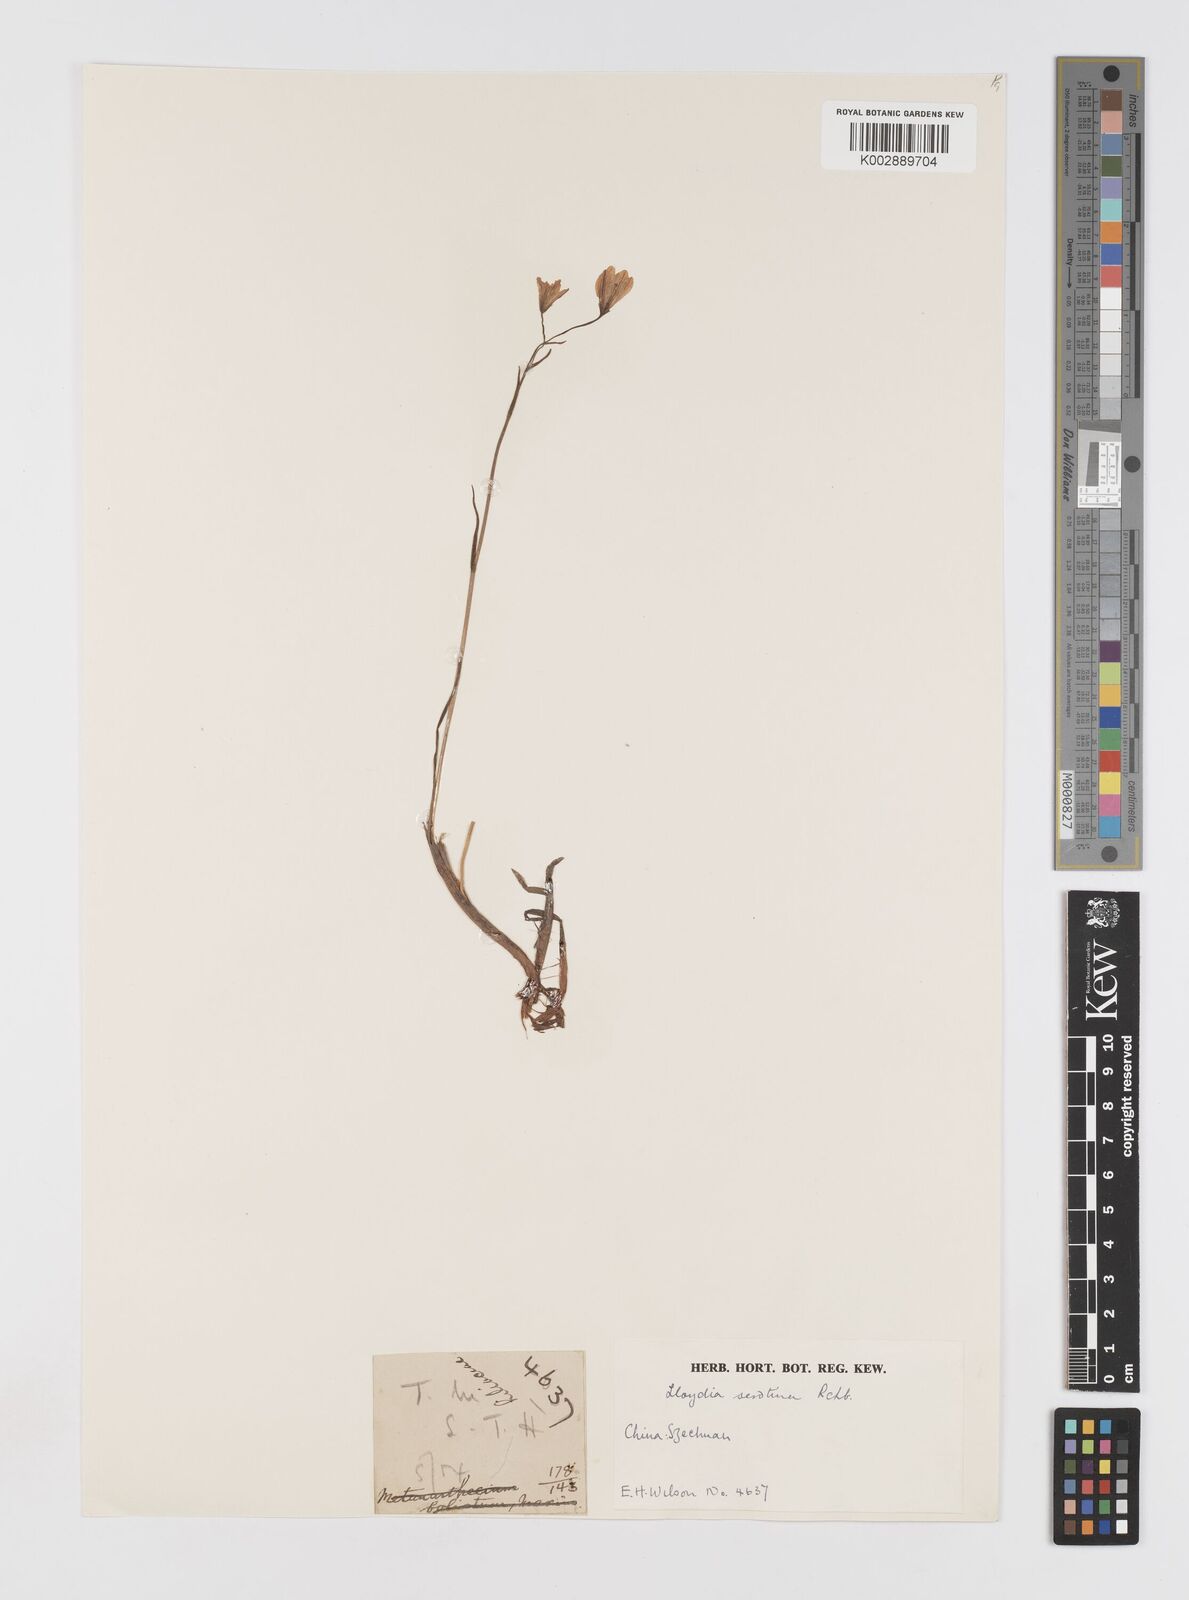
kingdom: Plantae
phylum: Tracheophyta
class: Liliopsida
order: Liliales
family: Liliaceae
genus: Gagea
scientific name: Gagea serotina
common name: Snowdon lily
